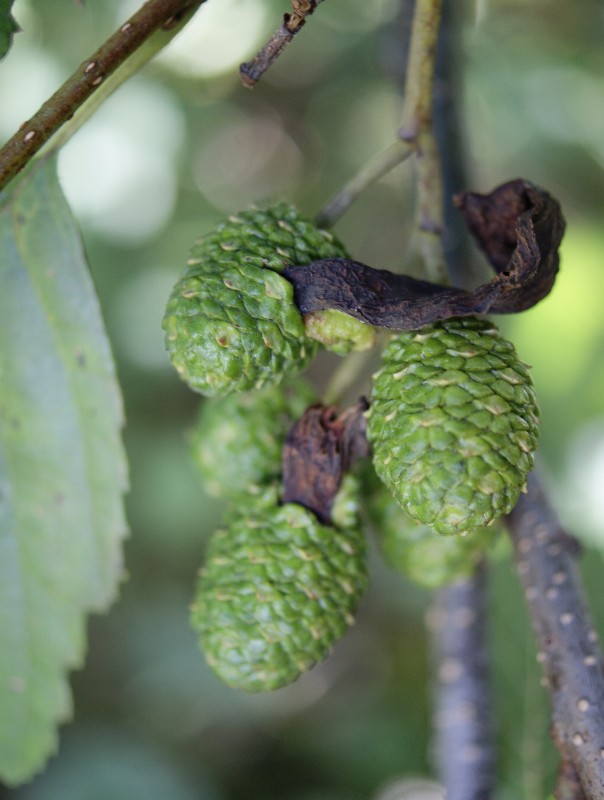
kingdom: Fungi
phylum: Ascomycota
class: Taphrinomycetes
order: Taphrinales
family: Taphrinaceae
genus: Taphrina
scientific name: Taphrina alni
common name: Alder tongue
